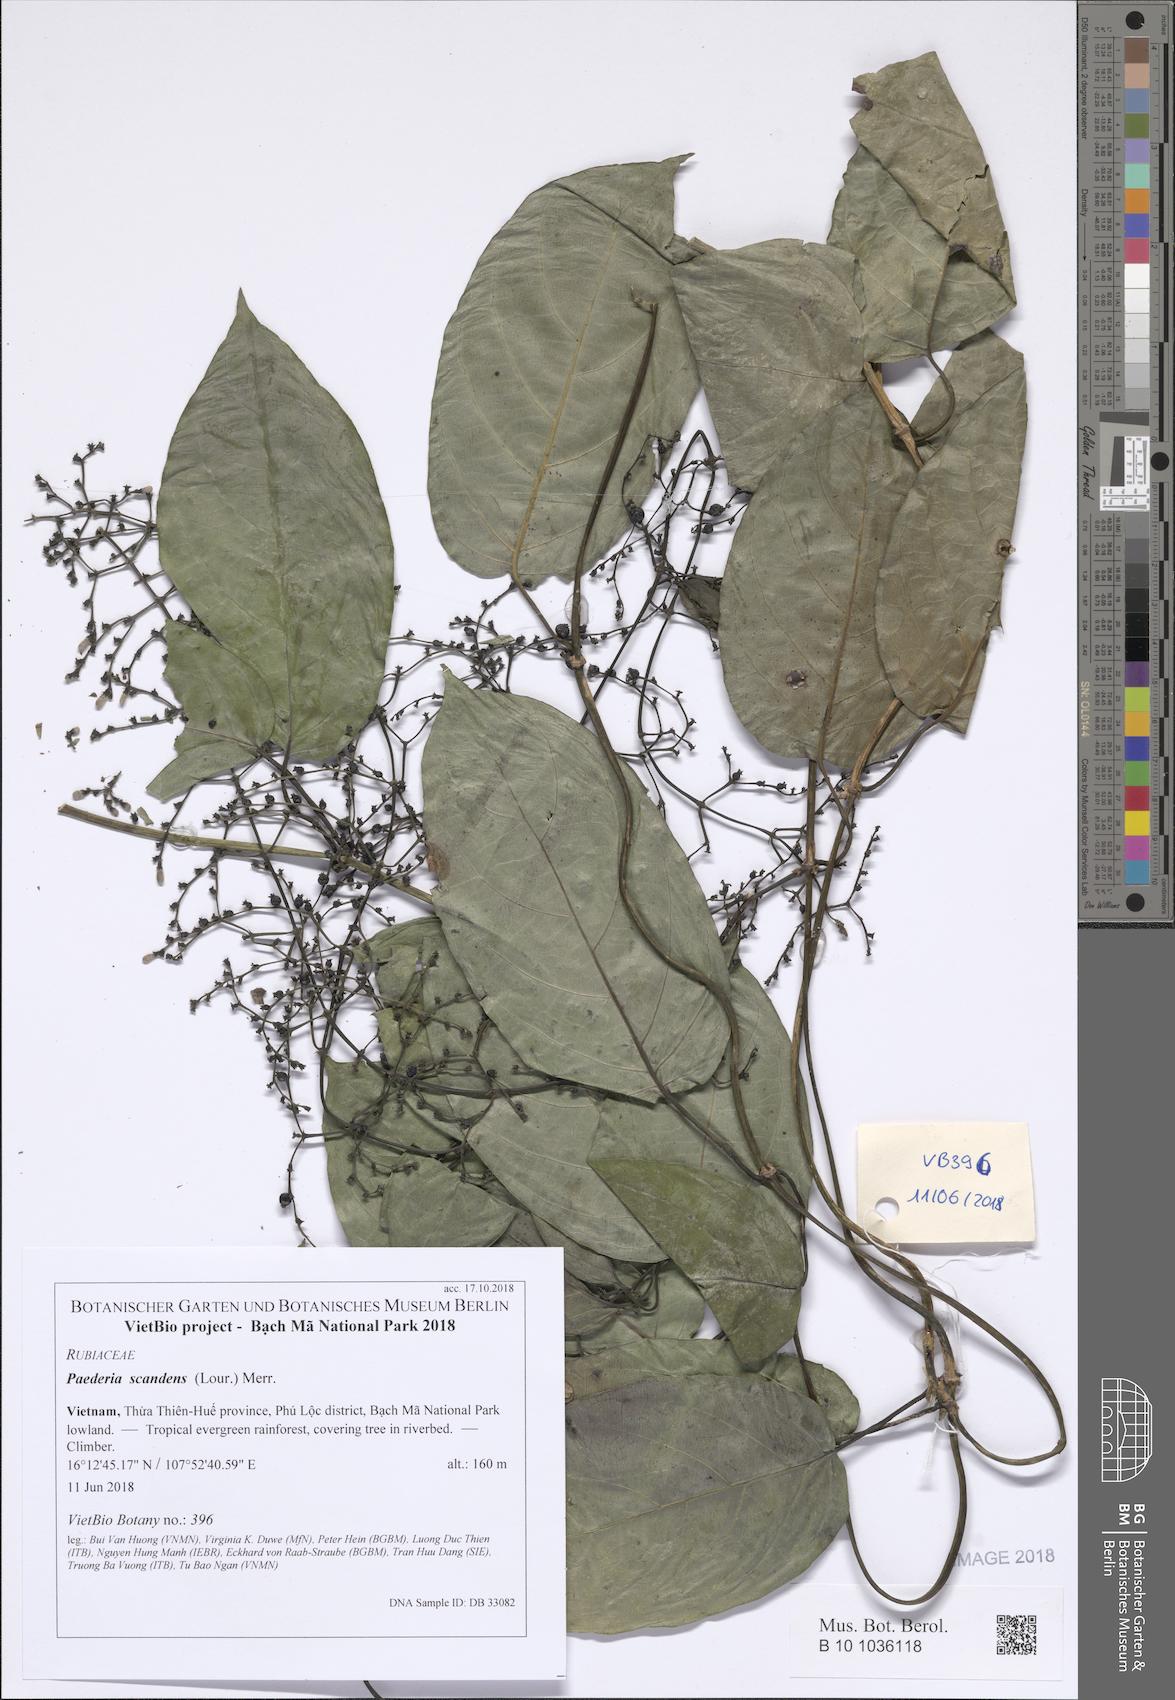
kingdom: Plantae
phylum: Tracheophyta
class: Magnoliopsida
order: Gentianales
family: Rubiaceae
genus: Paederia
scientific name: Paederia foetida
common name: Stinkvine
